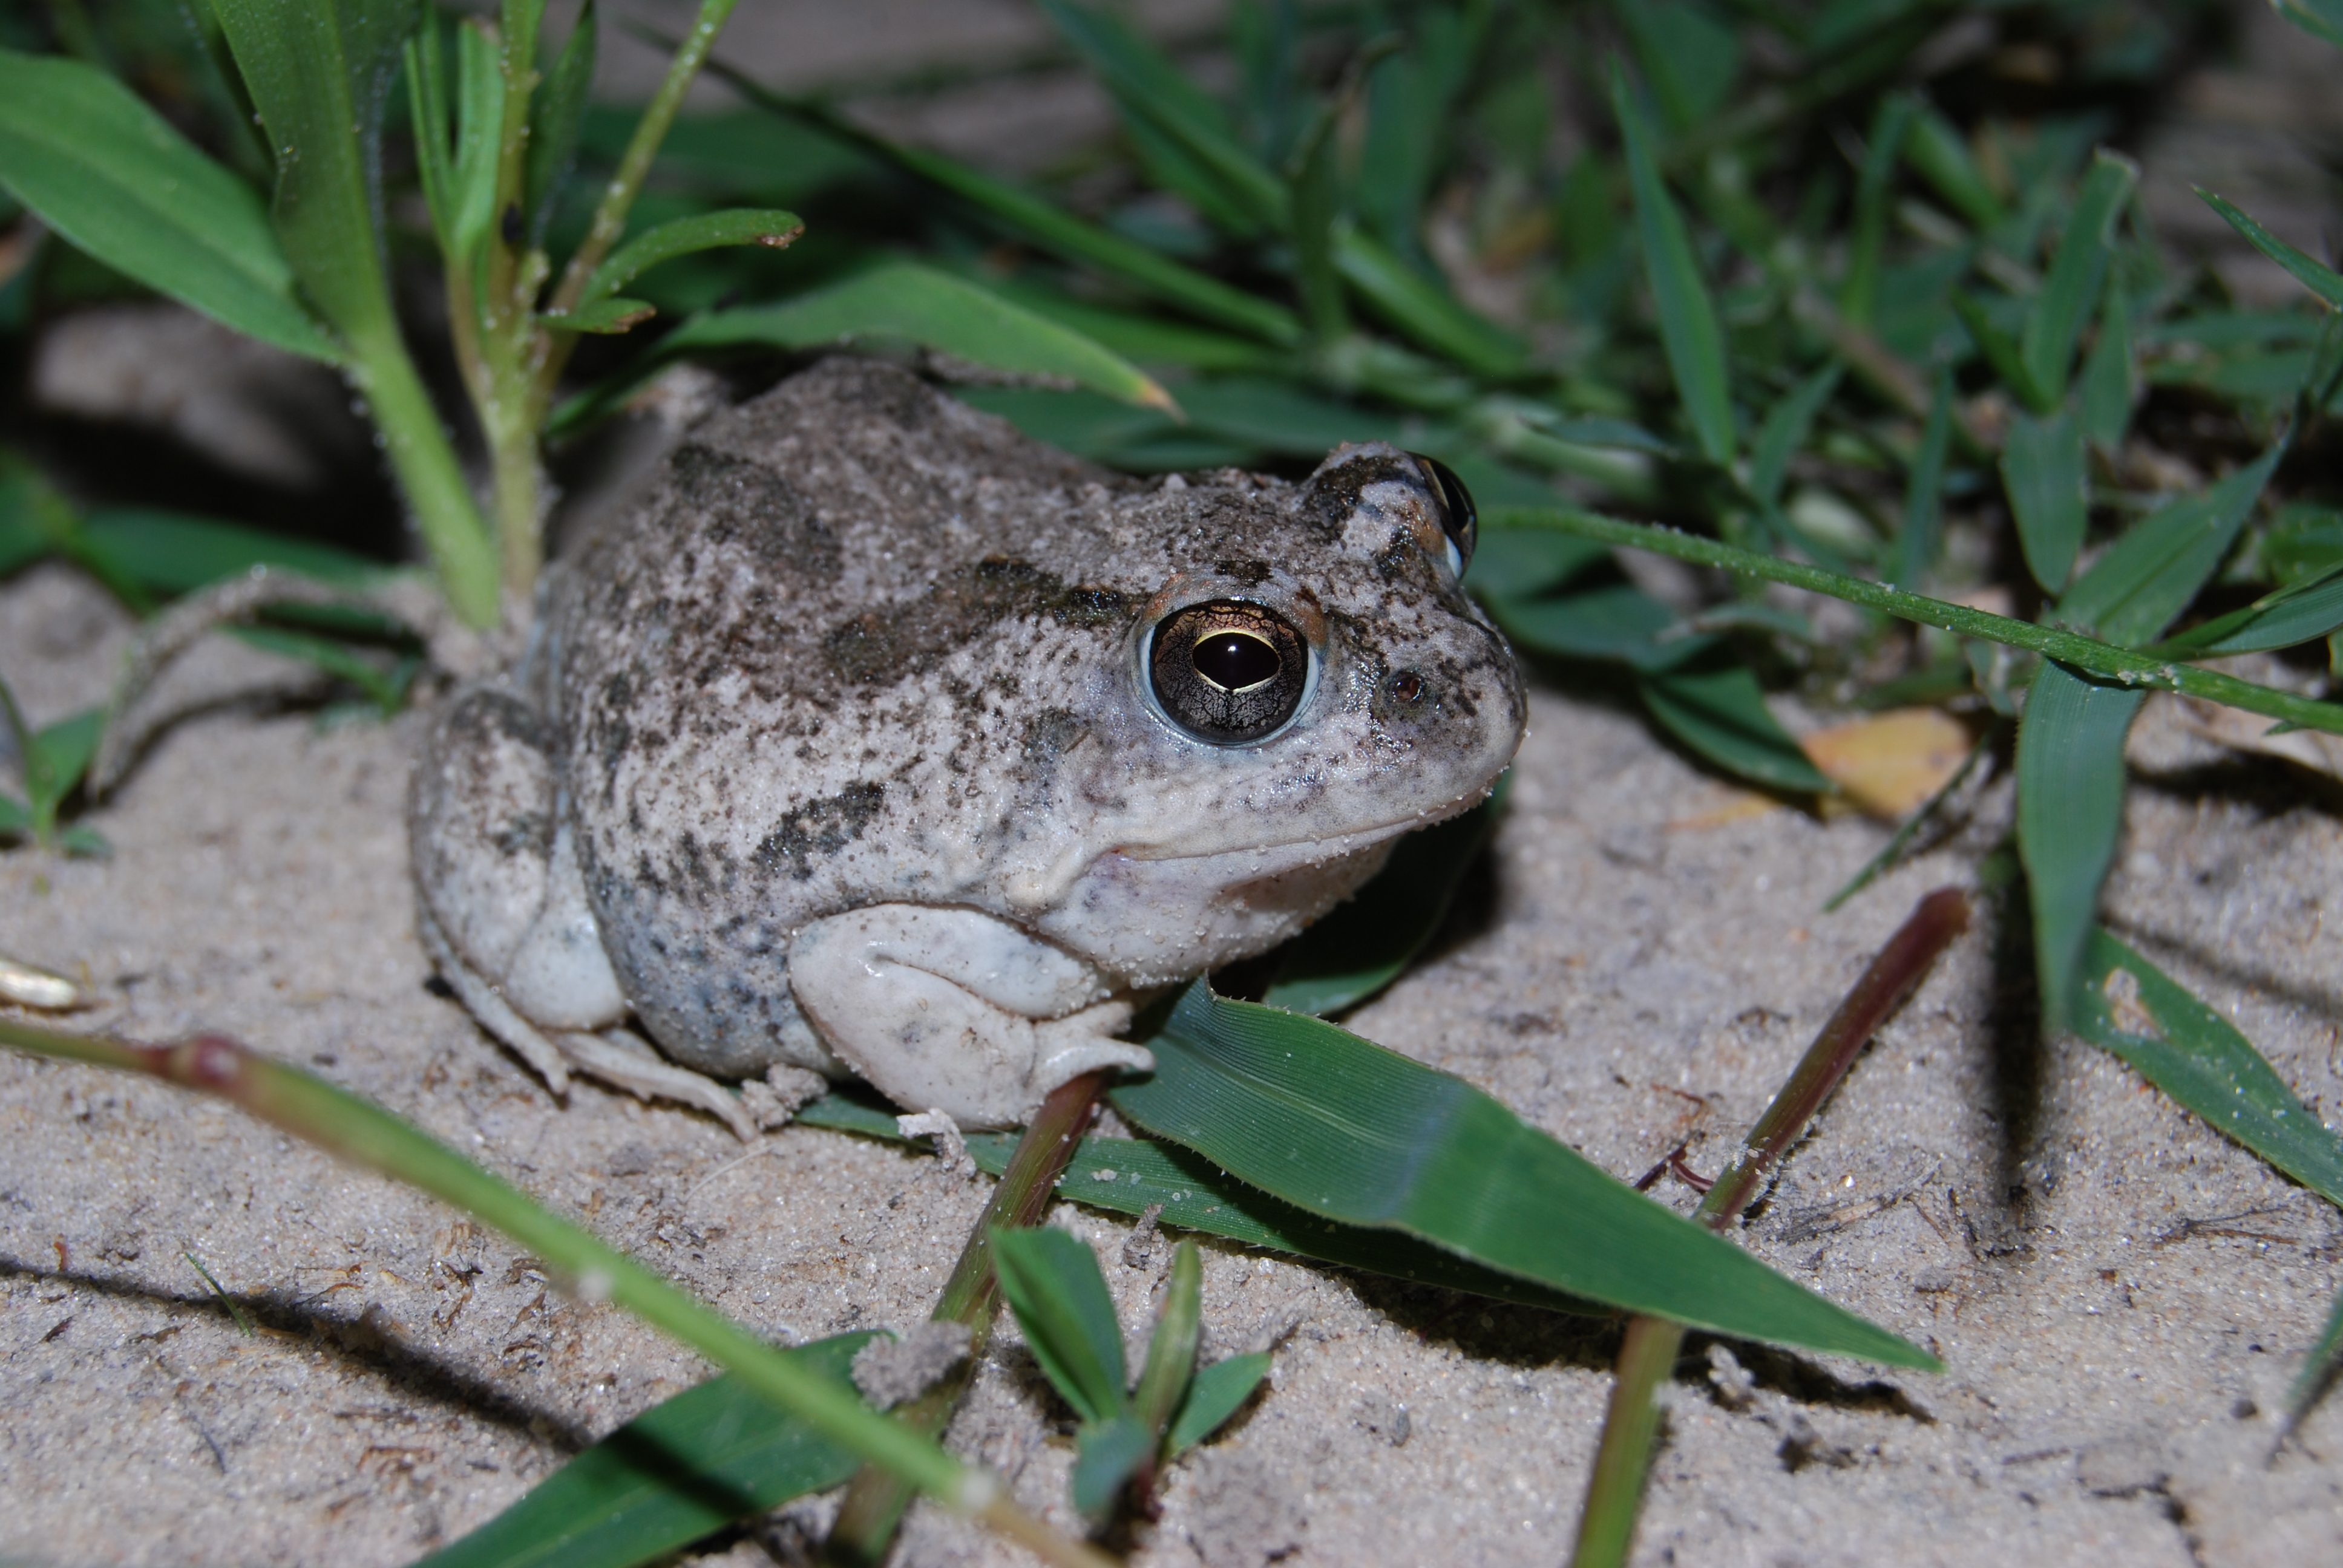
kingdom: Animalia
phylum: Chordata
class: Amphibia
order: Anura
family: Pyxicephalidae
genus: Tomopterna
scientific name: Tomopterna cryptotis
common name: Catequero bullfrog
